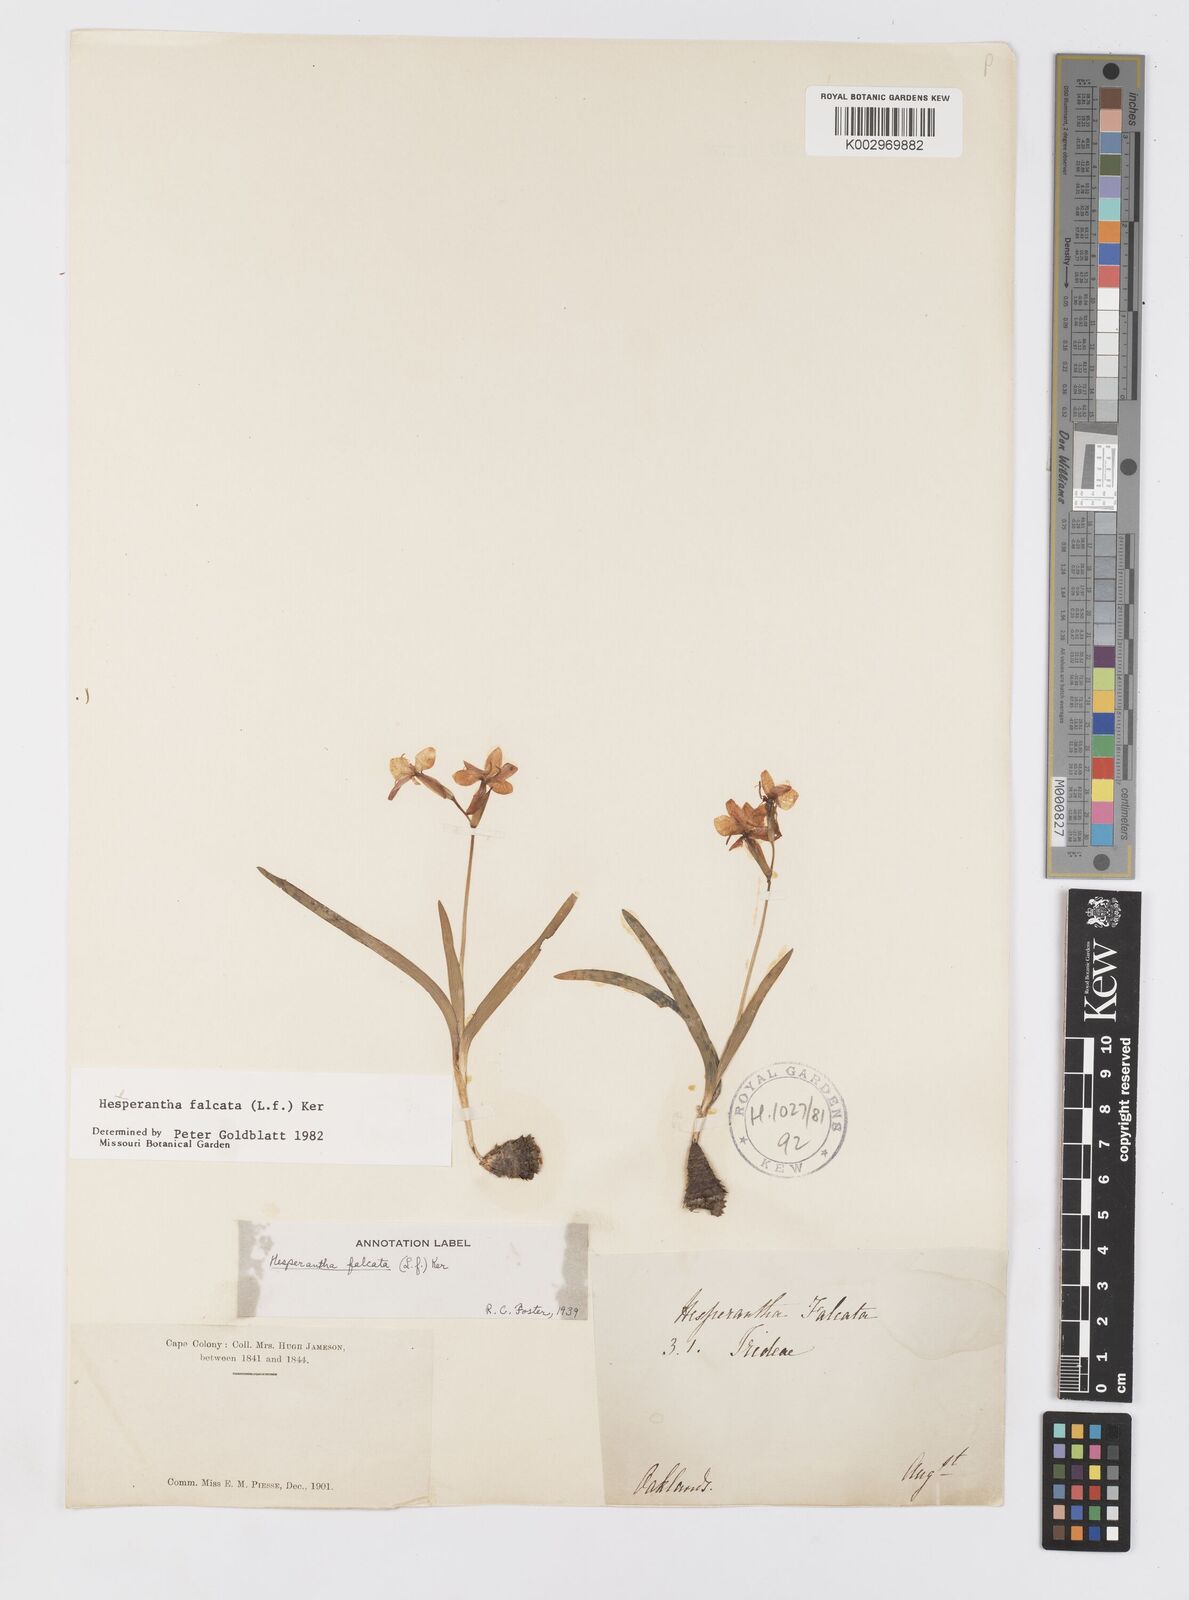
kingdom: Plantae
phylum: Tracheophyta
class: Liliopsida
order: Asparagales
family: Iridaceae
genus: Hesperantha
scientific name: Hesperantha falcata
